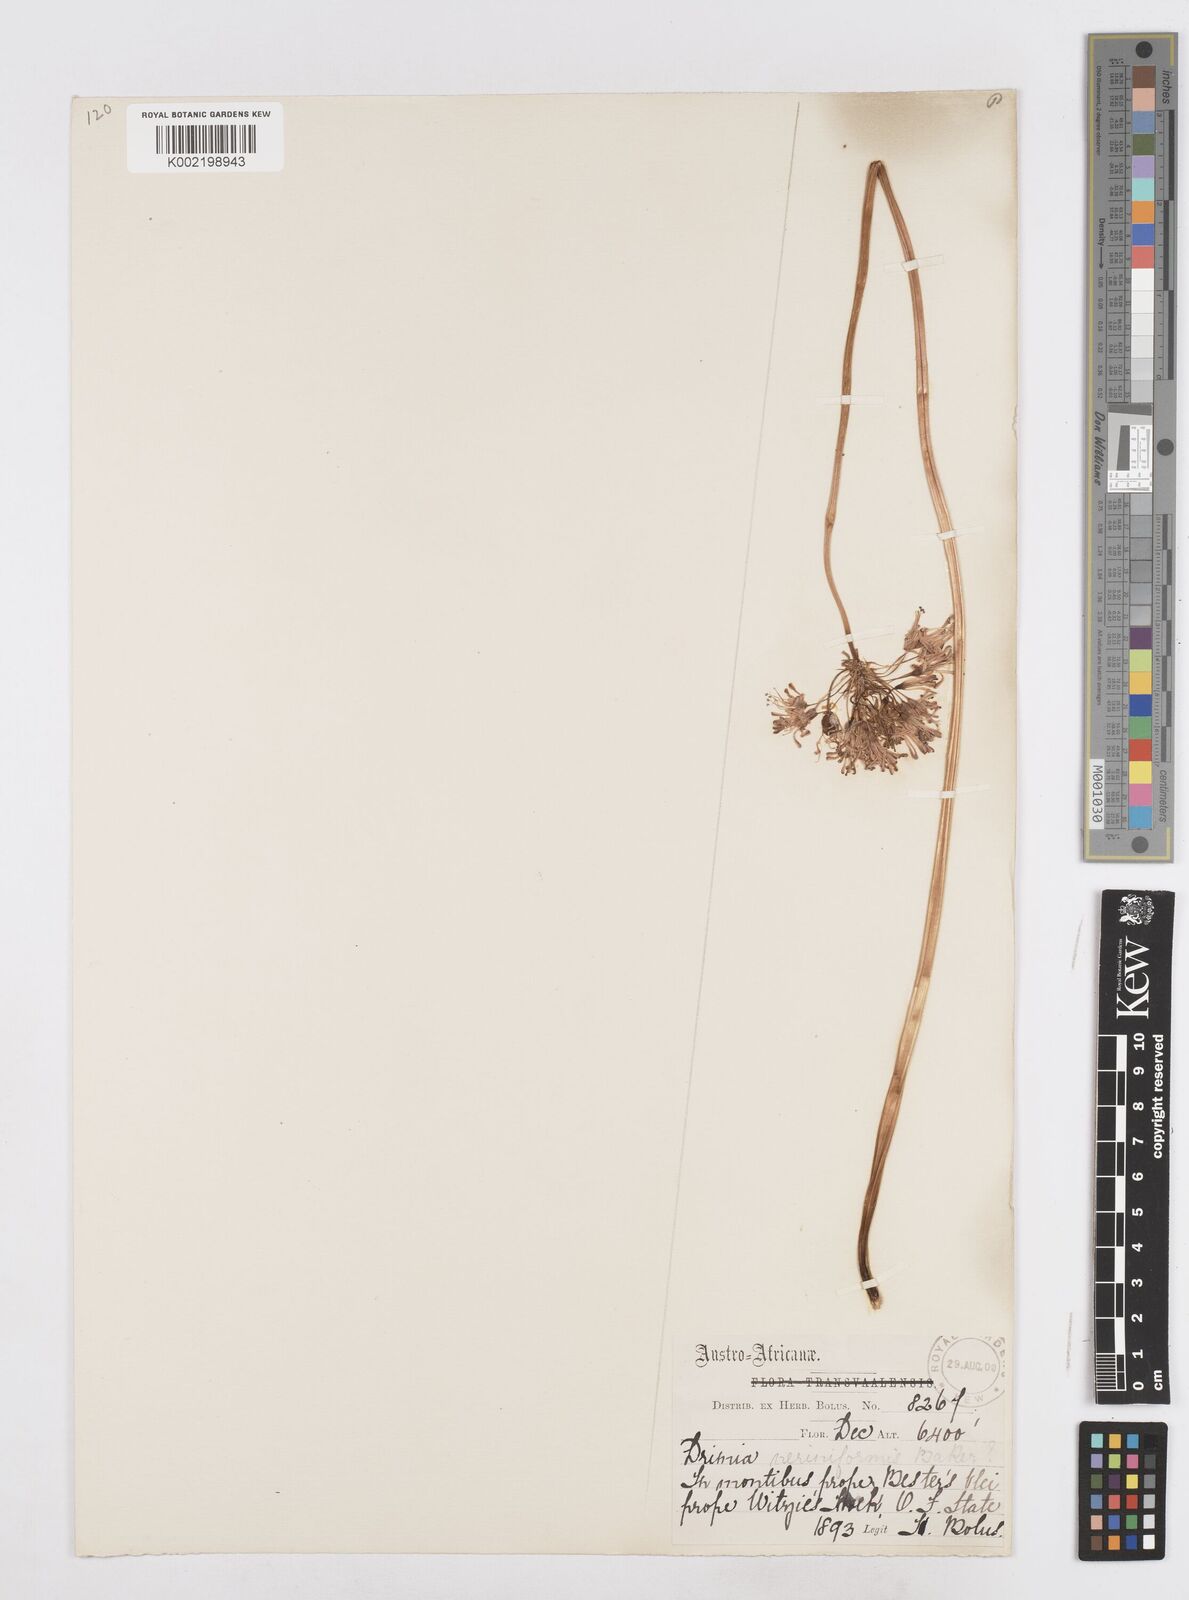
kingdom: Plantae
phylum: Tracheophyta
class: Liliopsida
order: Asparagales
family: Asparagaceae
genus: Drimia
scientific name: Drimia sphaerocephala
